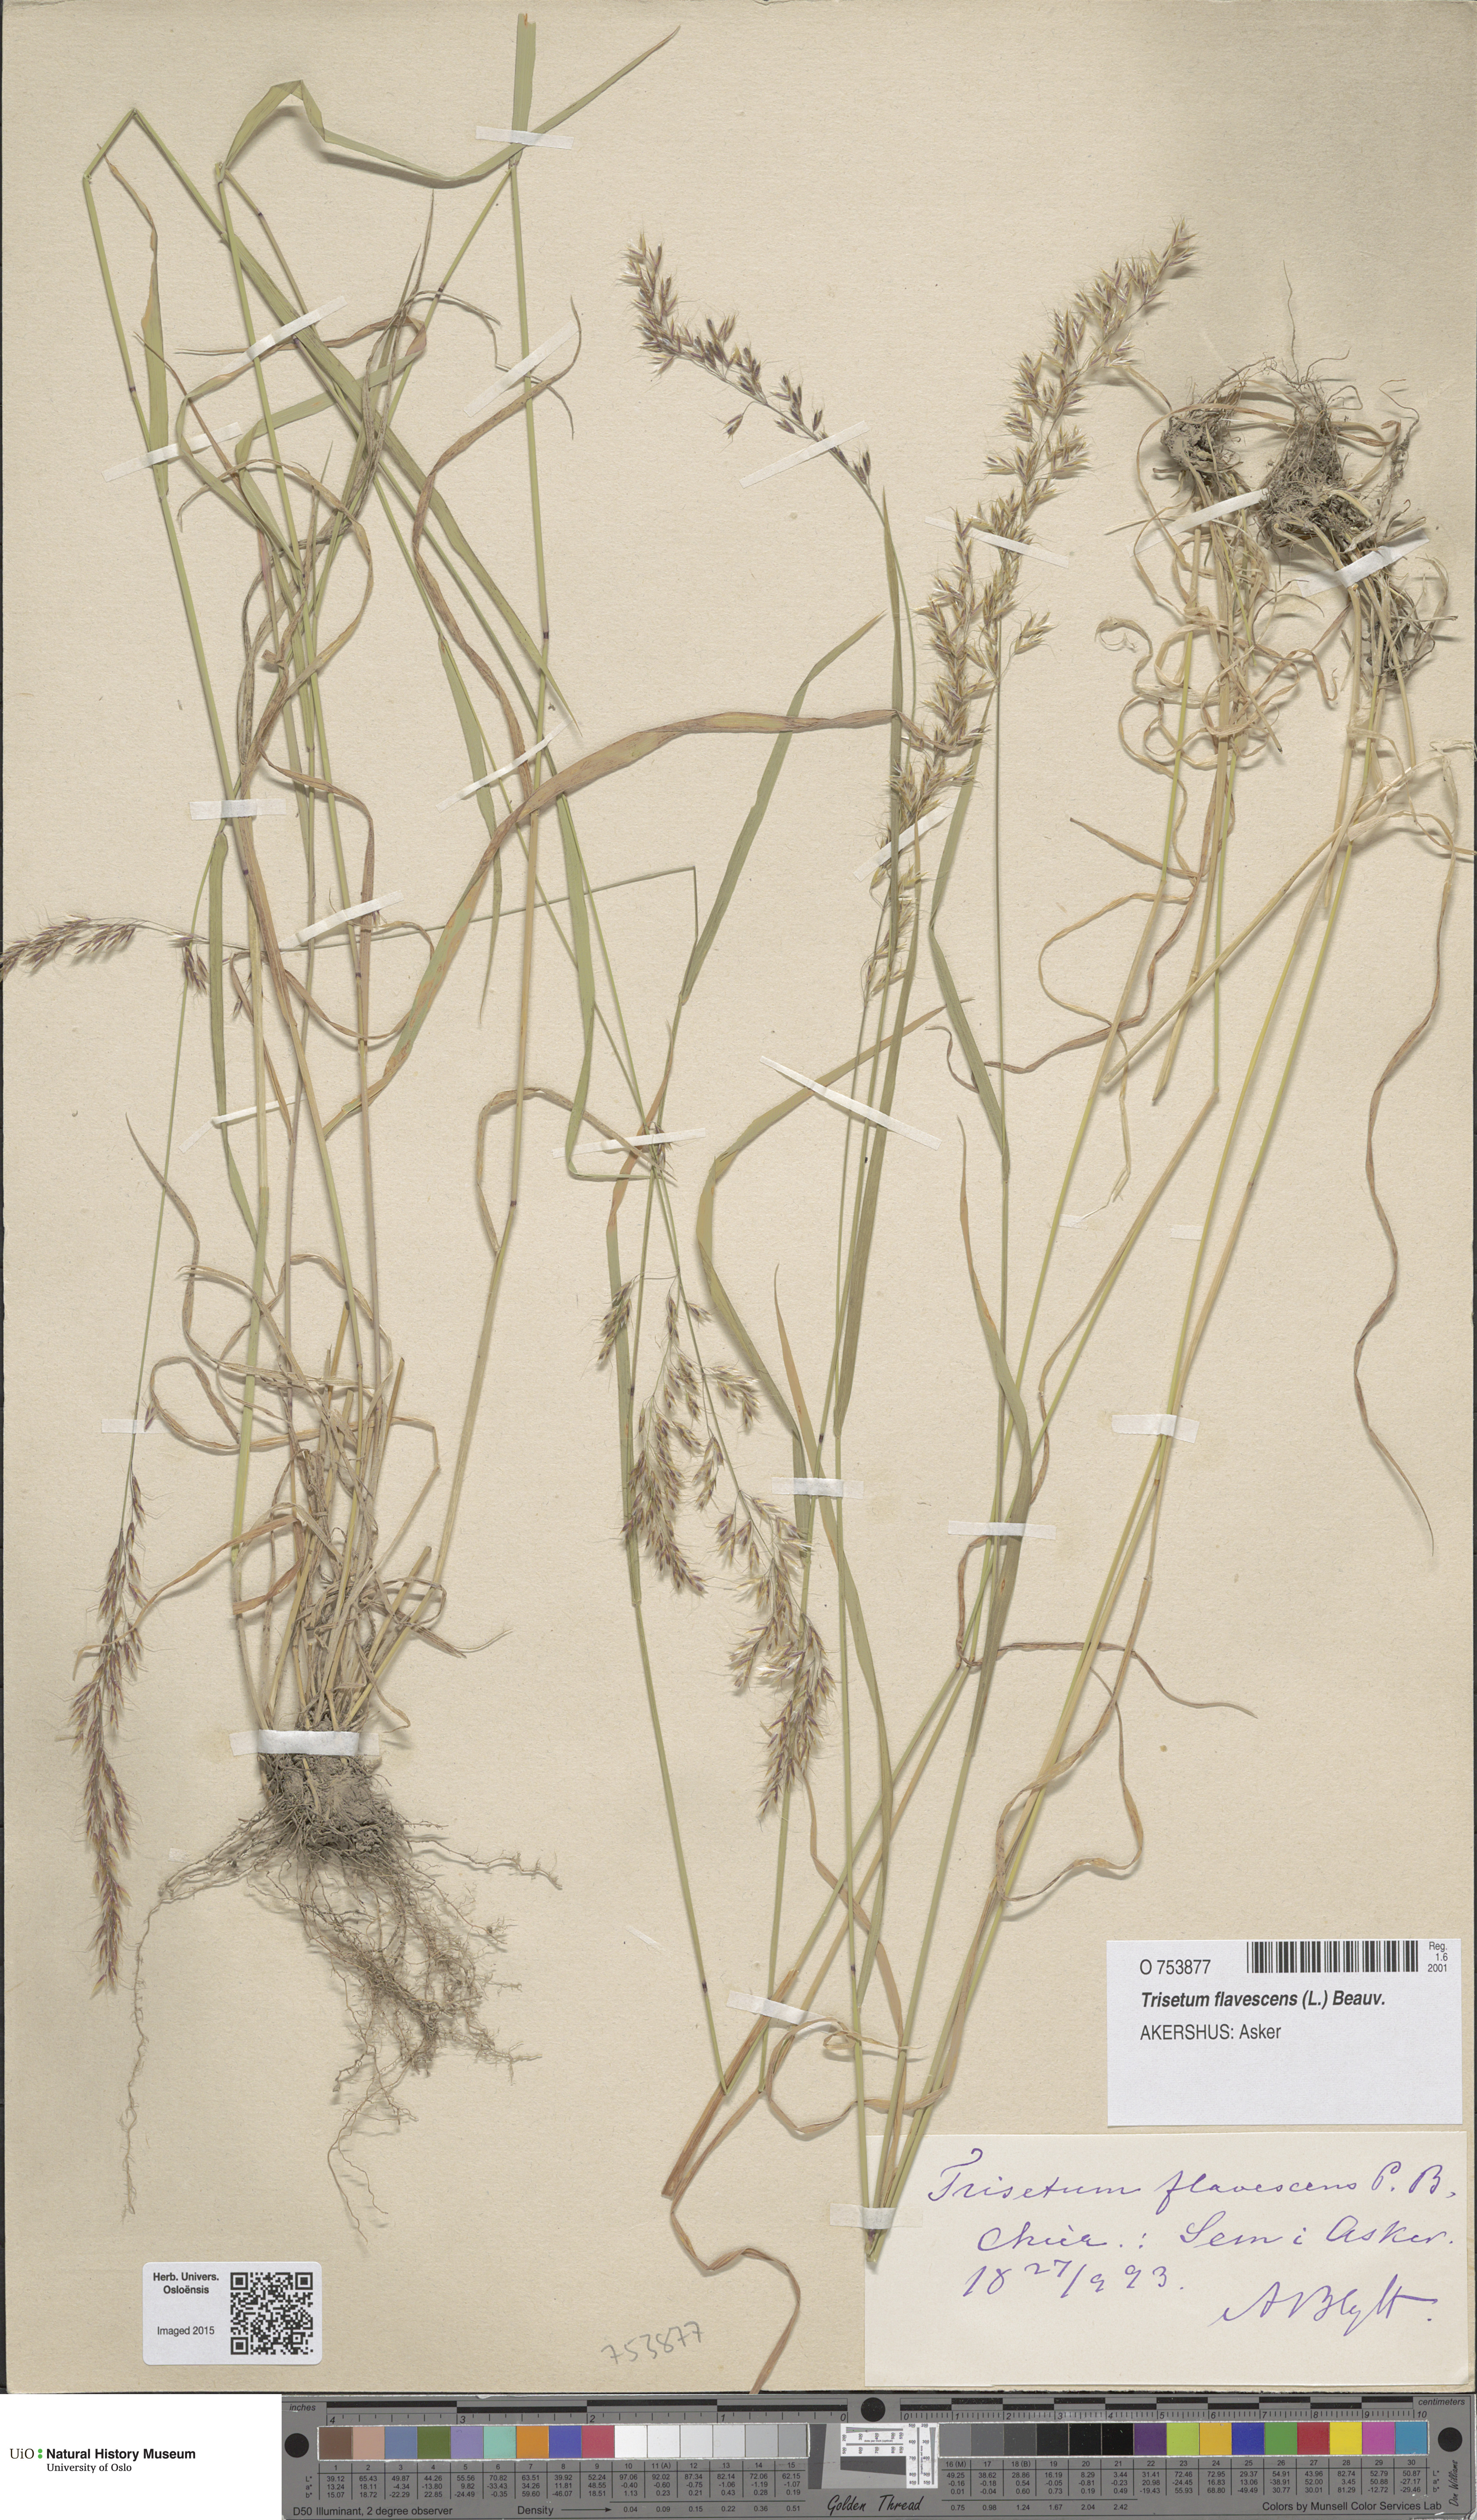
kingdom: Plantae
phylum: Tracheophyta
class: Liliopsida
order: Poales
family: Poaceae
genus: Trisetum
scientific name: Trisetum flavescens
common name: Yellow oat-grass
